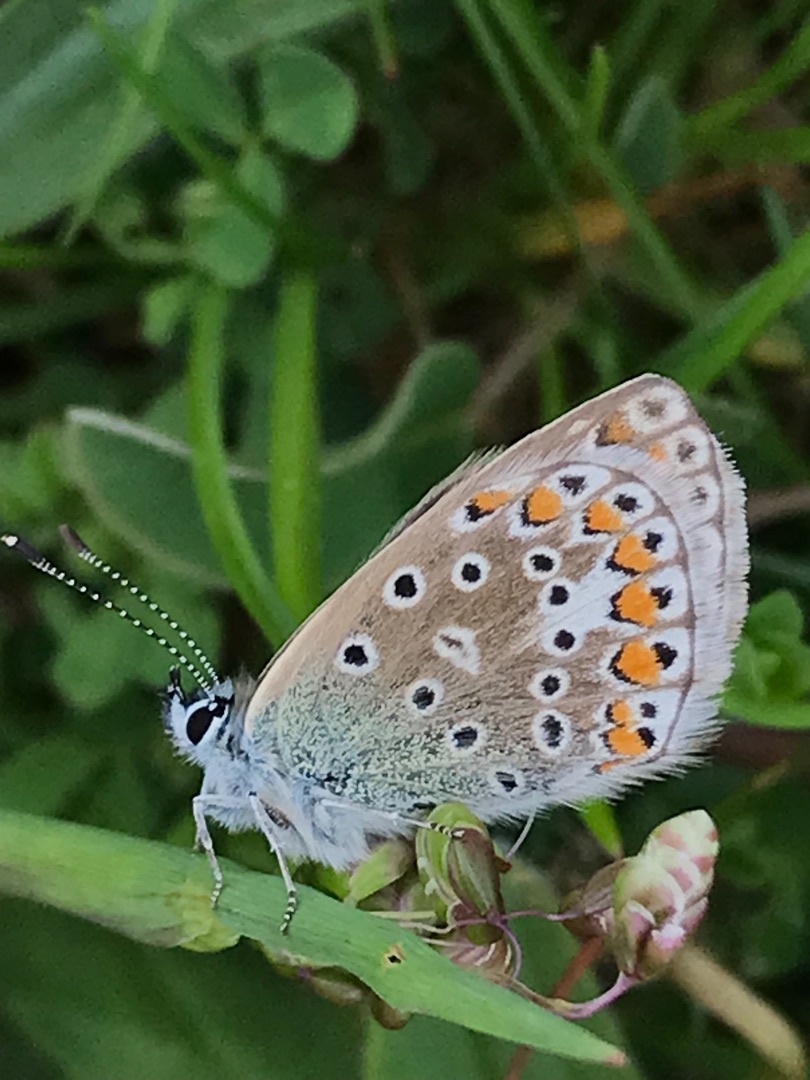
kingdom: Animalia
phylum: Arthropoda
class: Insecta
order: Lepidoptera
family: Lycaenidae
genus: Polyommatus
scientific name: Polyommatus icarus
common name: Almindelig blåfugl
